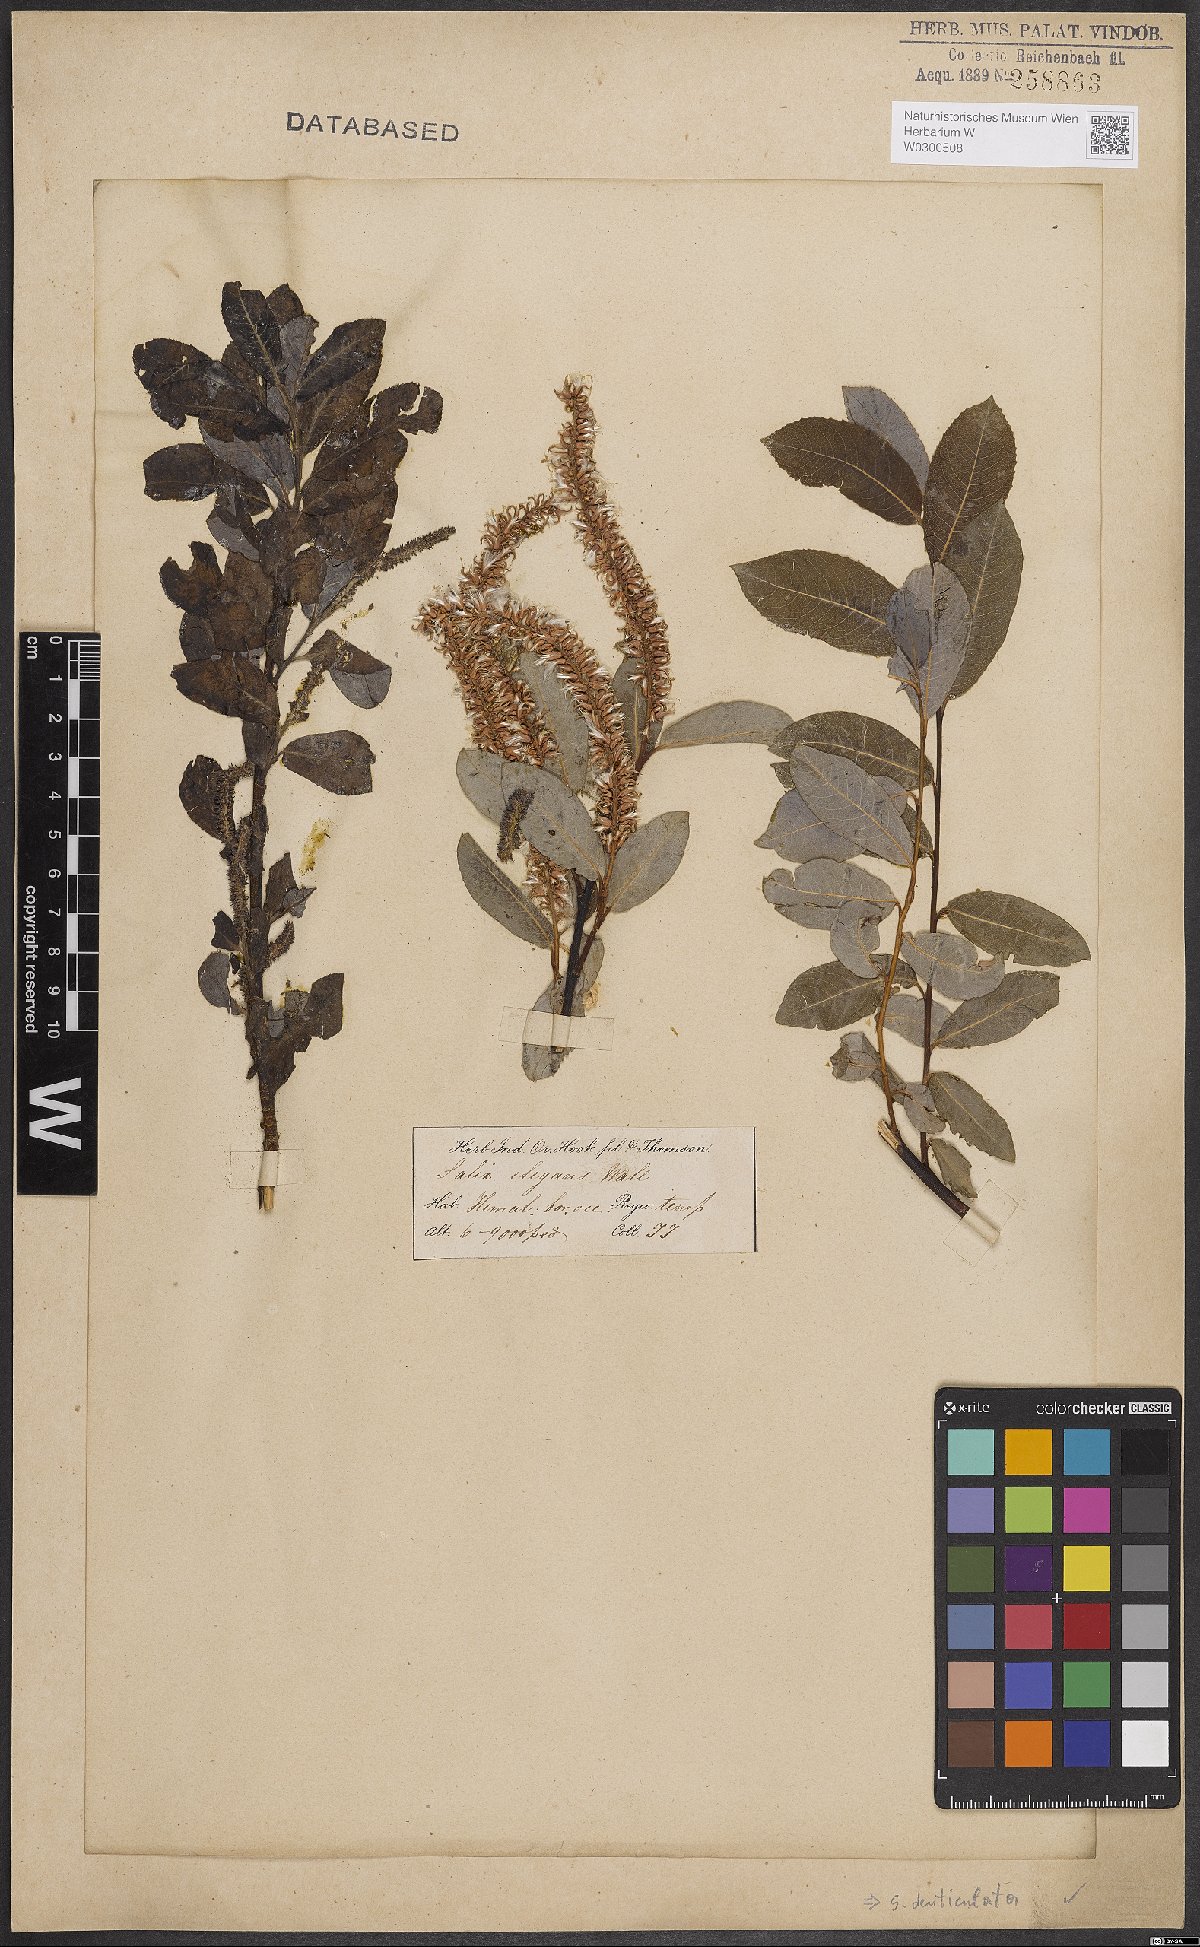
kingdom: Plantae
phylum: Tracheophyta
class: Magnoliopsida
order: Malpighiales
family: Salicaceae
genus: Salix
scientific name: Salix denticulata
